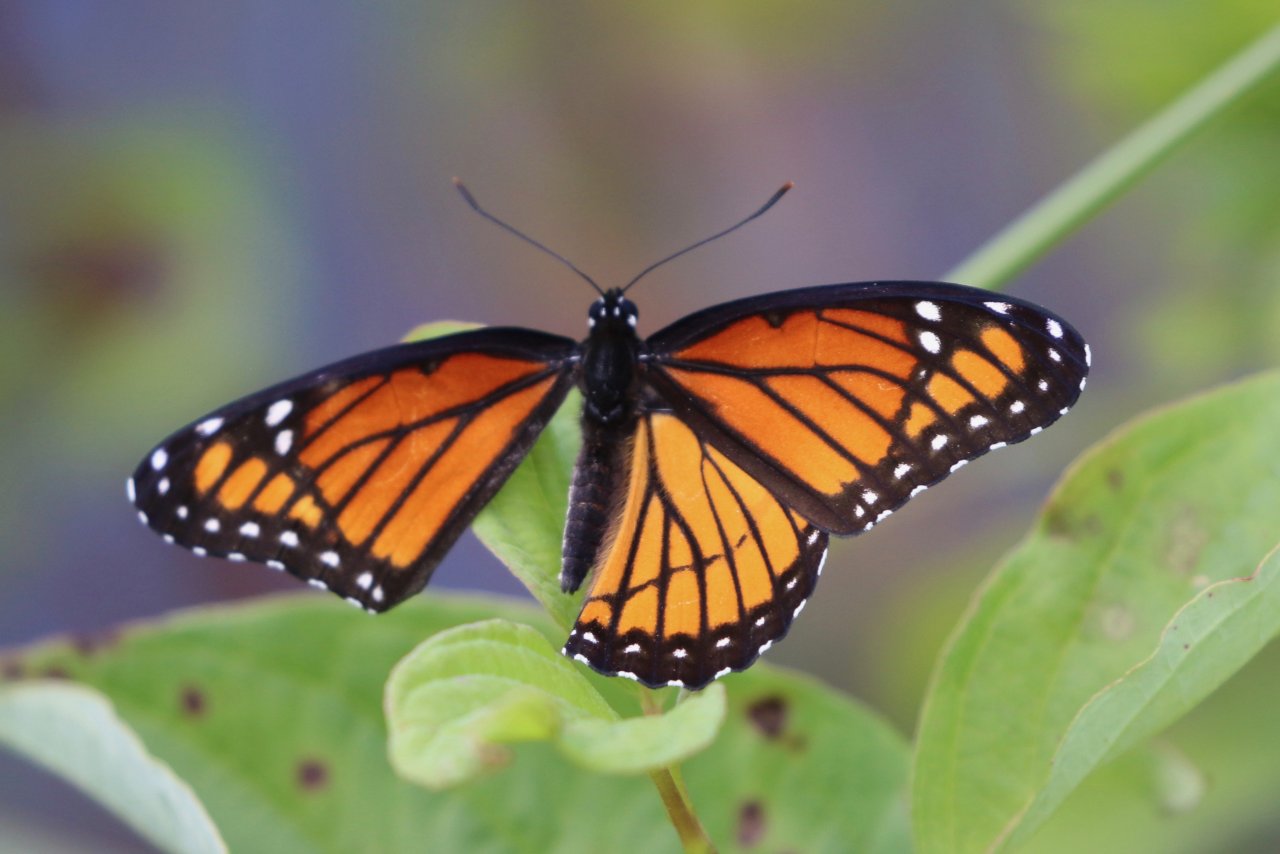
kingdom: Animalia
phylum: Arthropoda
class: Insecta
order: Lepidoptera
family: Nymphalidae
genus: Limenitis
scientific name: Limenitis archippus
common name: Viceroy
